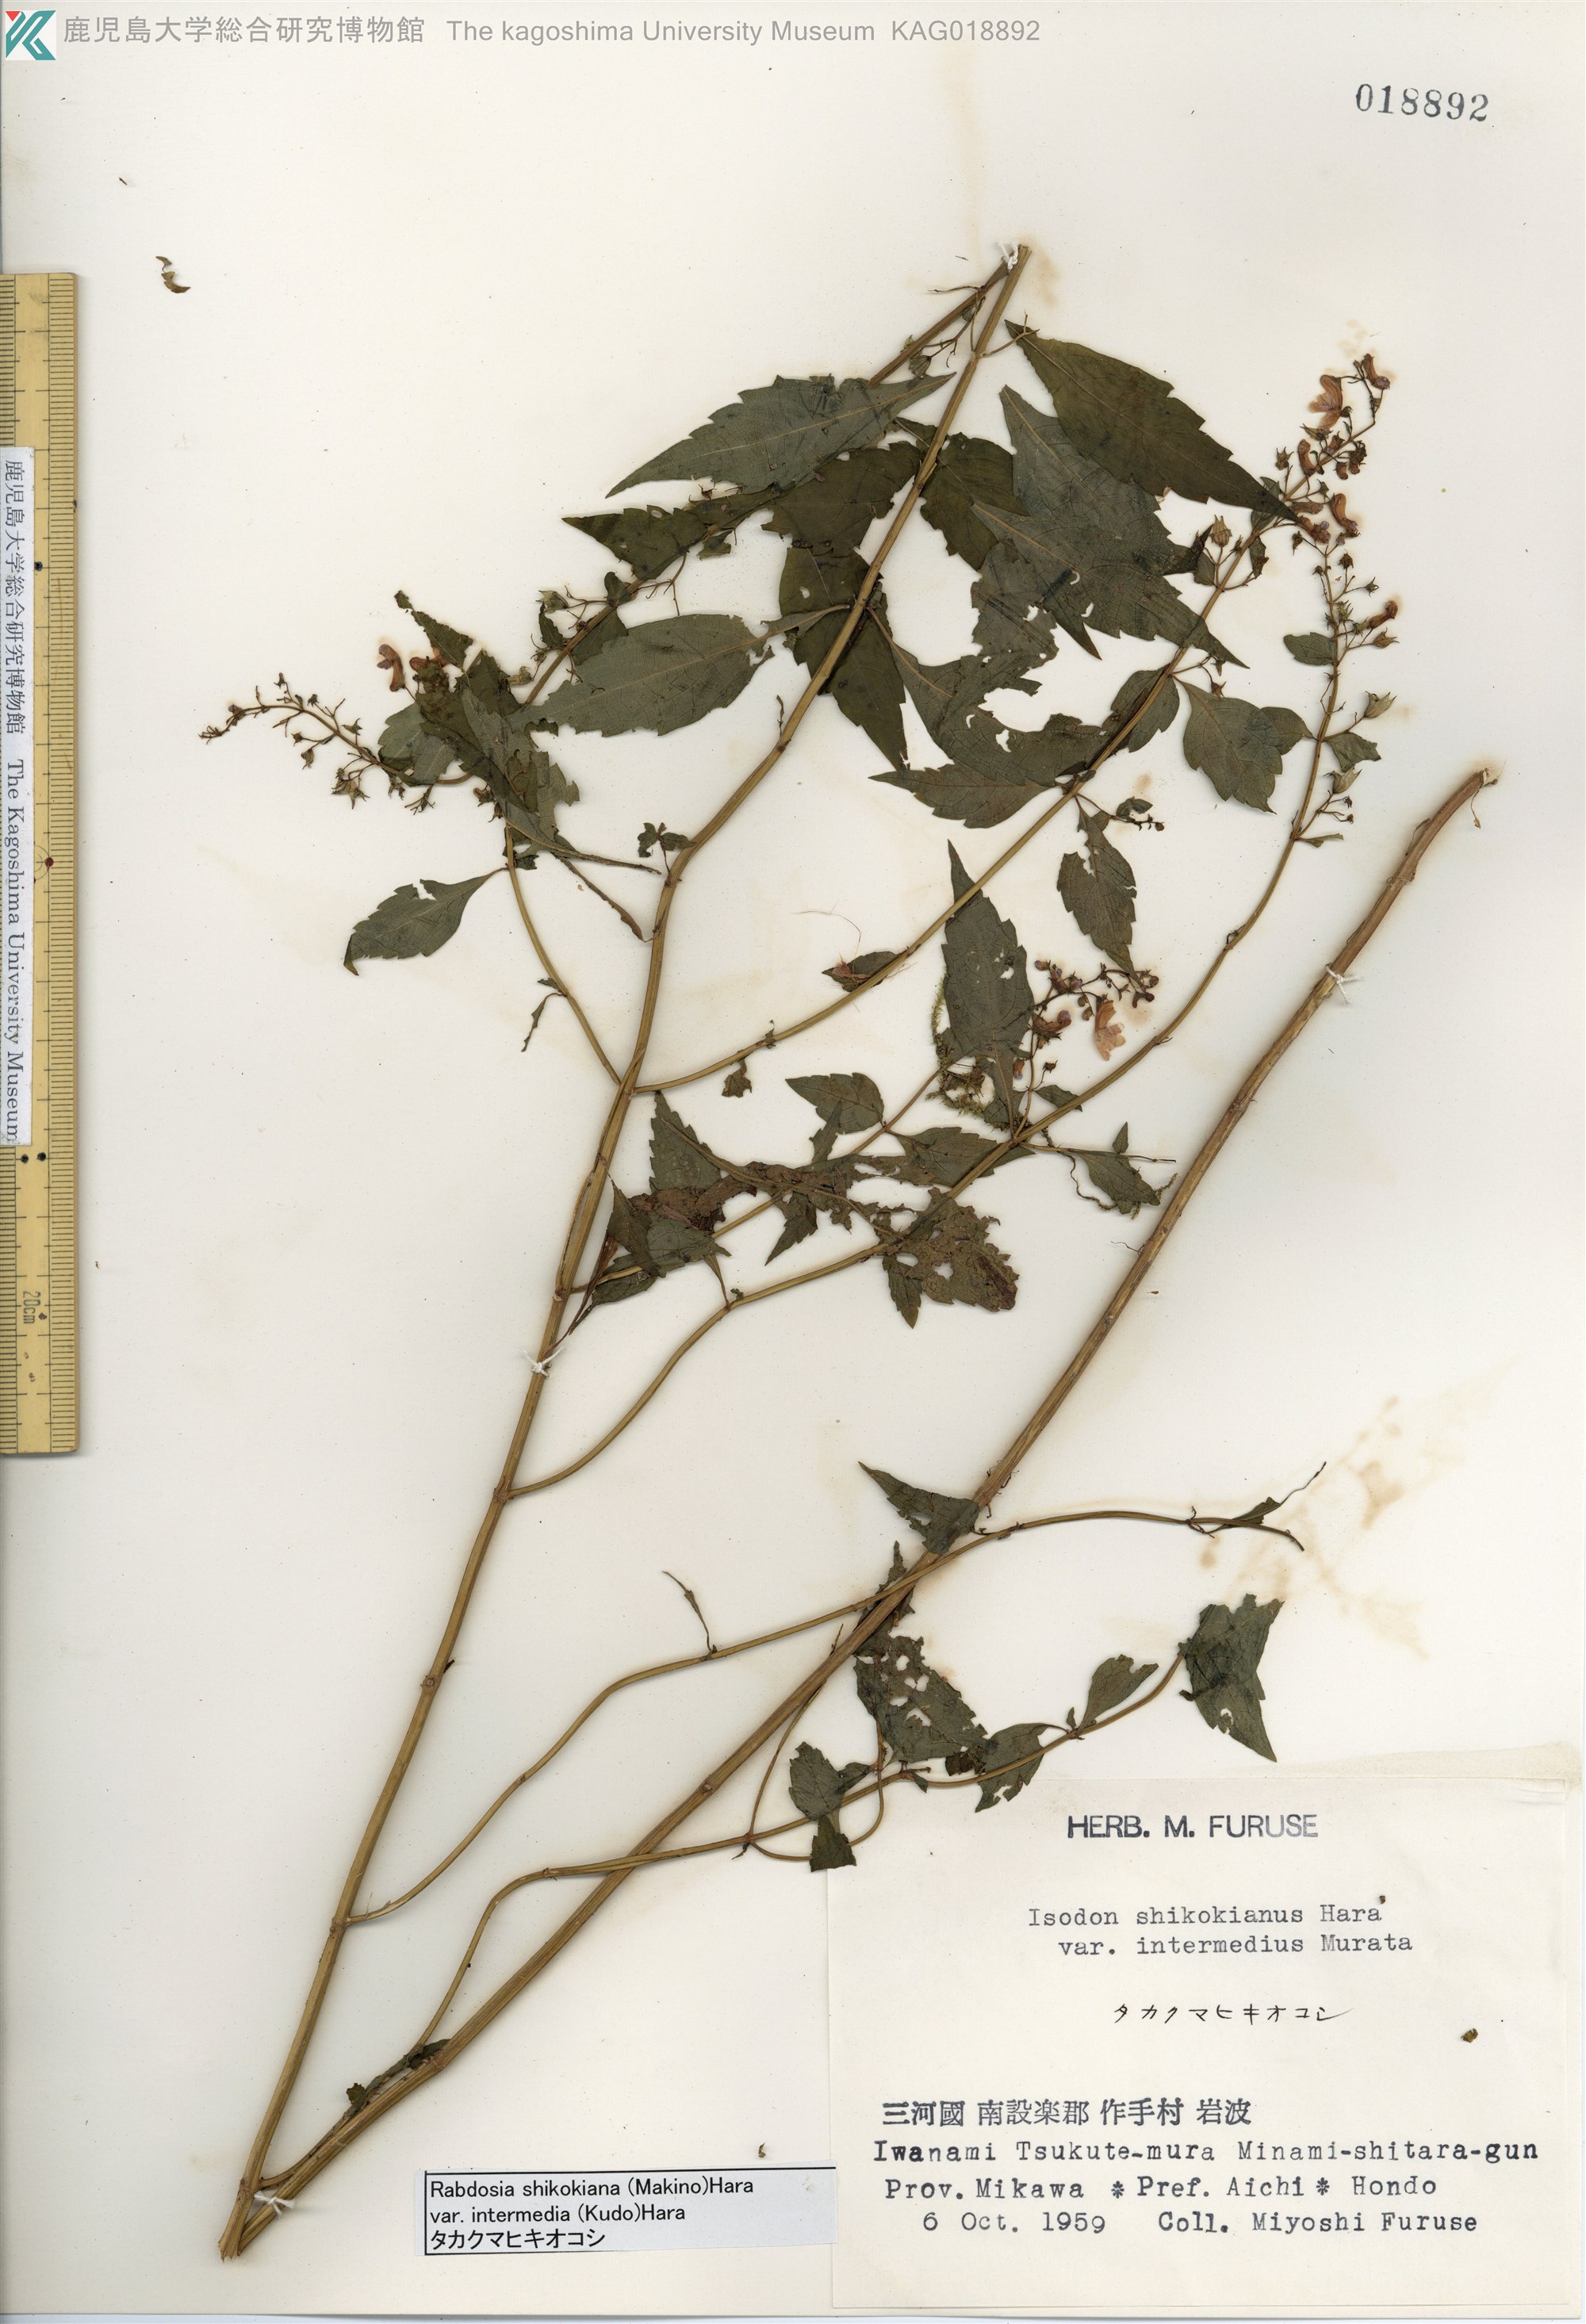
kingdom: Plantae
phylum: Tracheophyta
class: Magnoliopsida
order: Lamiales
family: Lamiaceae
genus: Isodon
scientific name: Isodon shikokianus
